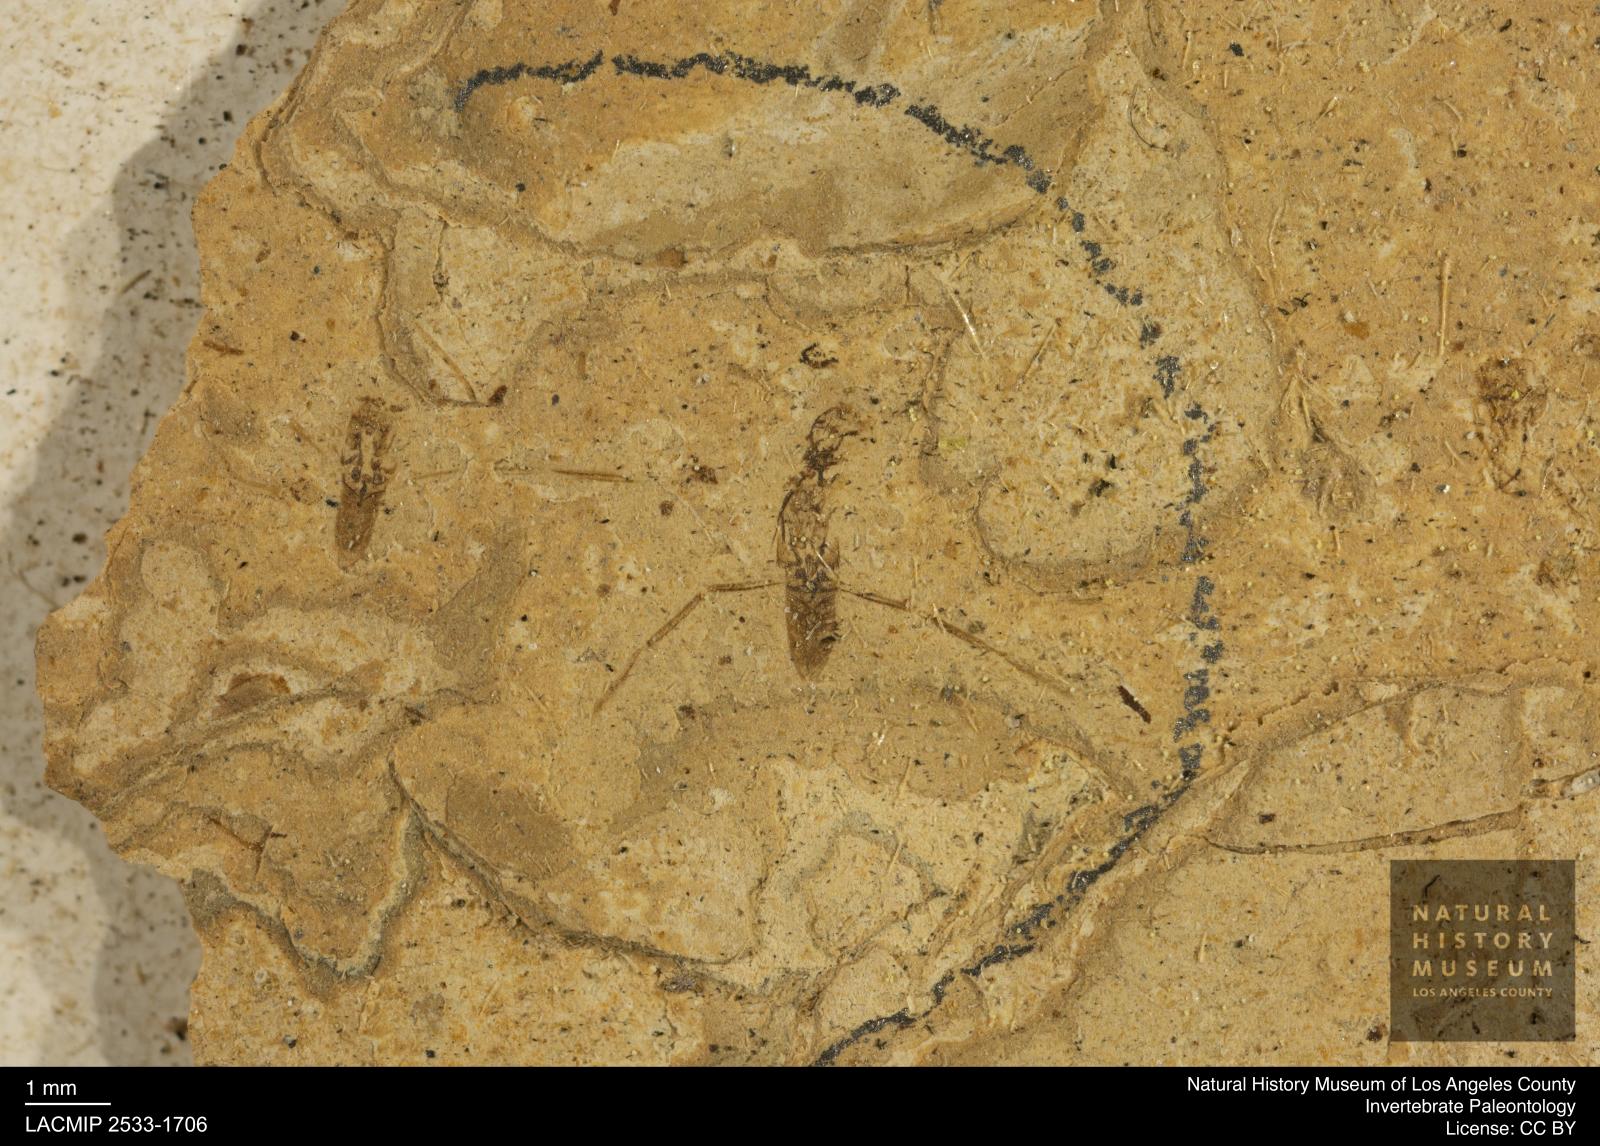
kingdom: Animalia
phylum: Arthropoda
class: Insecta
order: Hemiptera
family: Notonectidae
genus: Notonecta
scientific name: Notonecta
